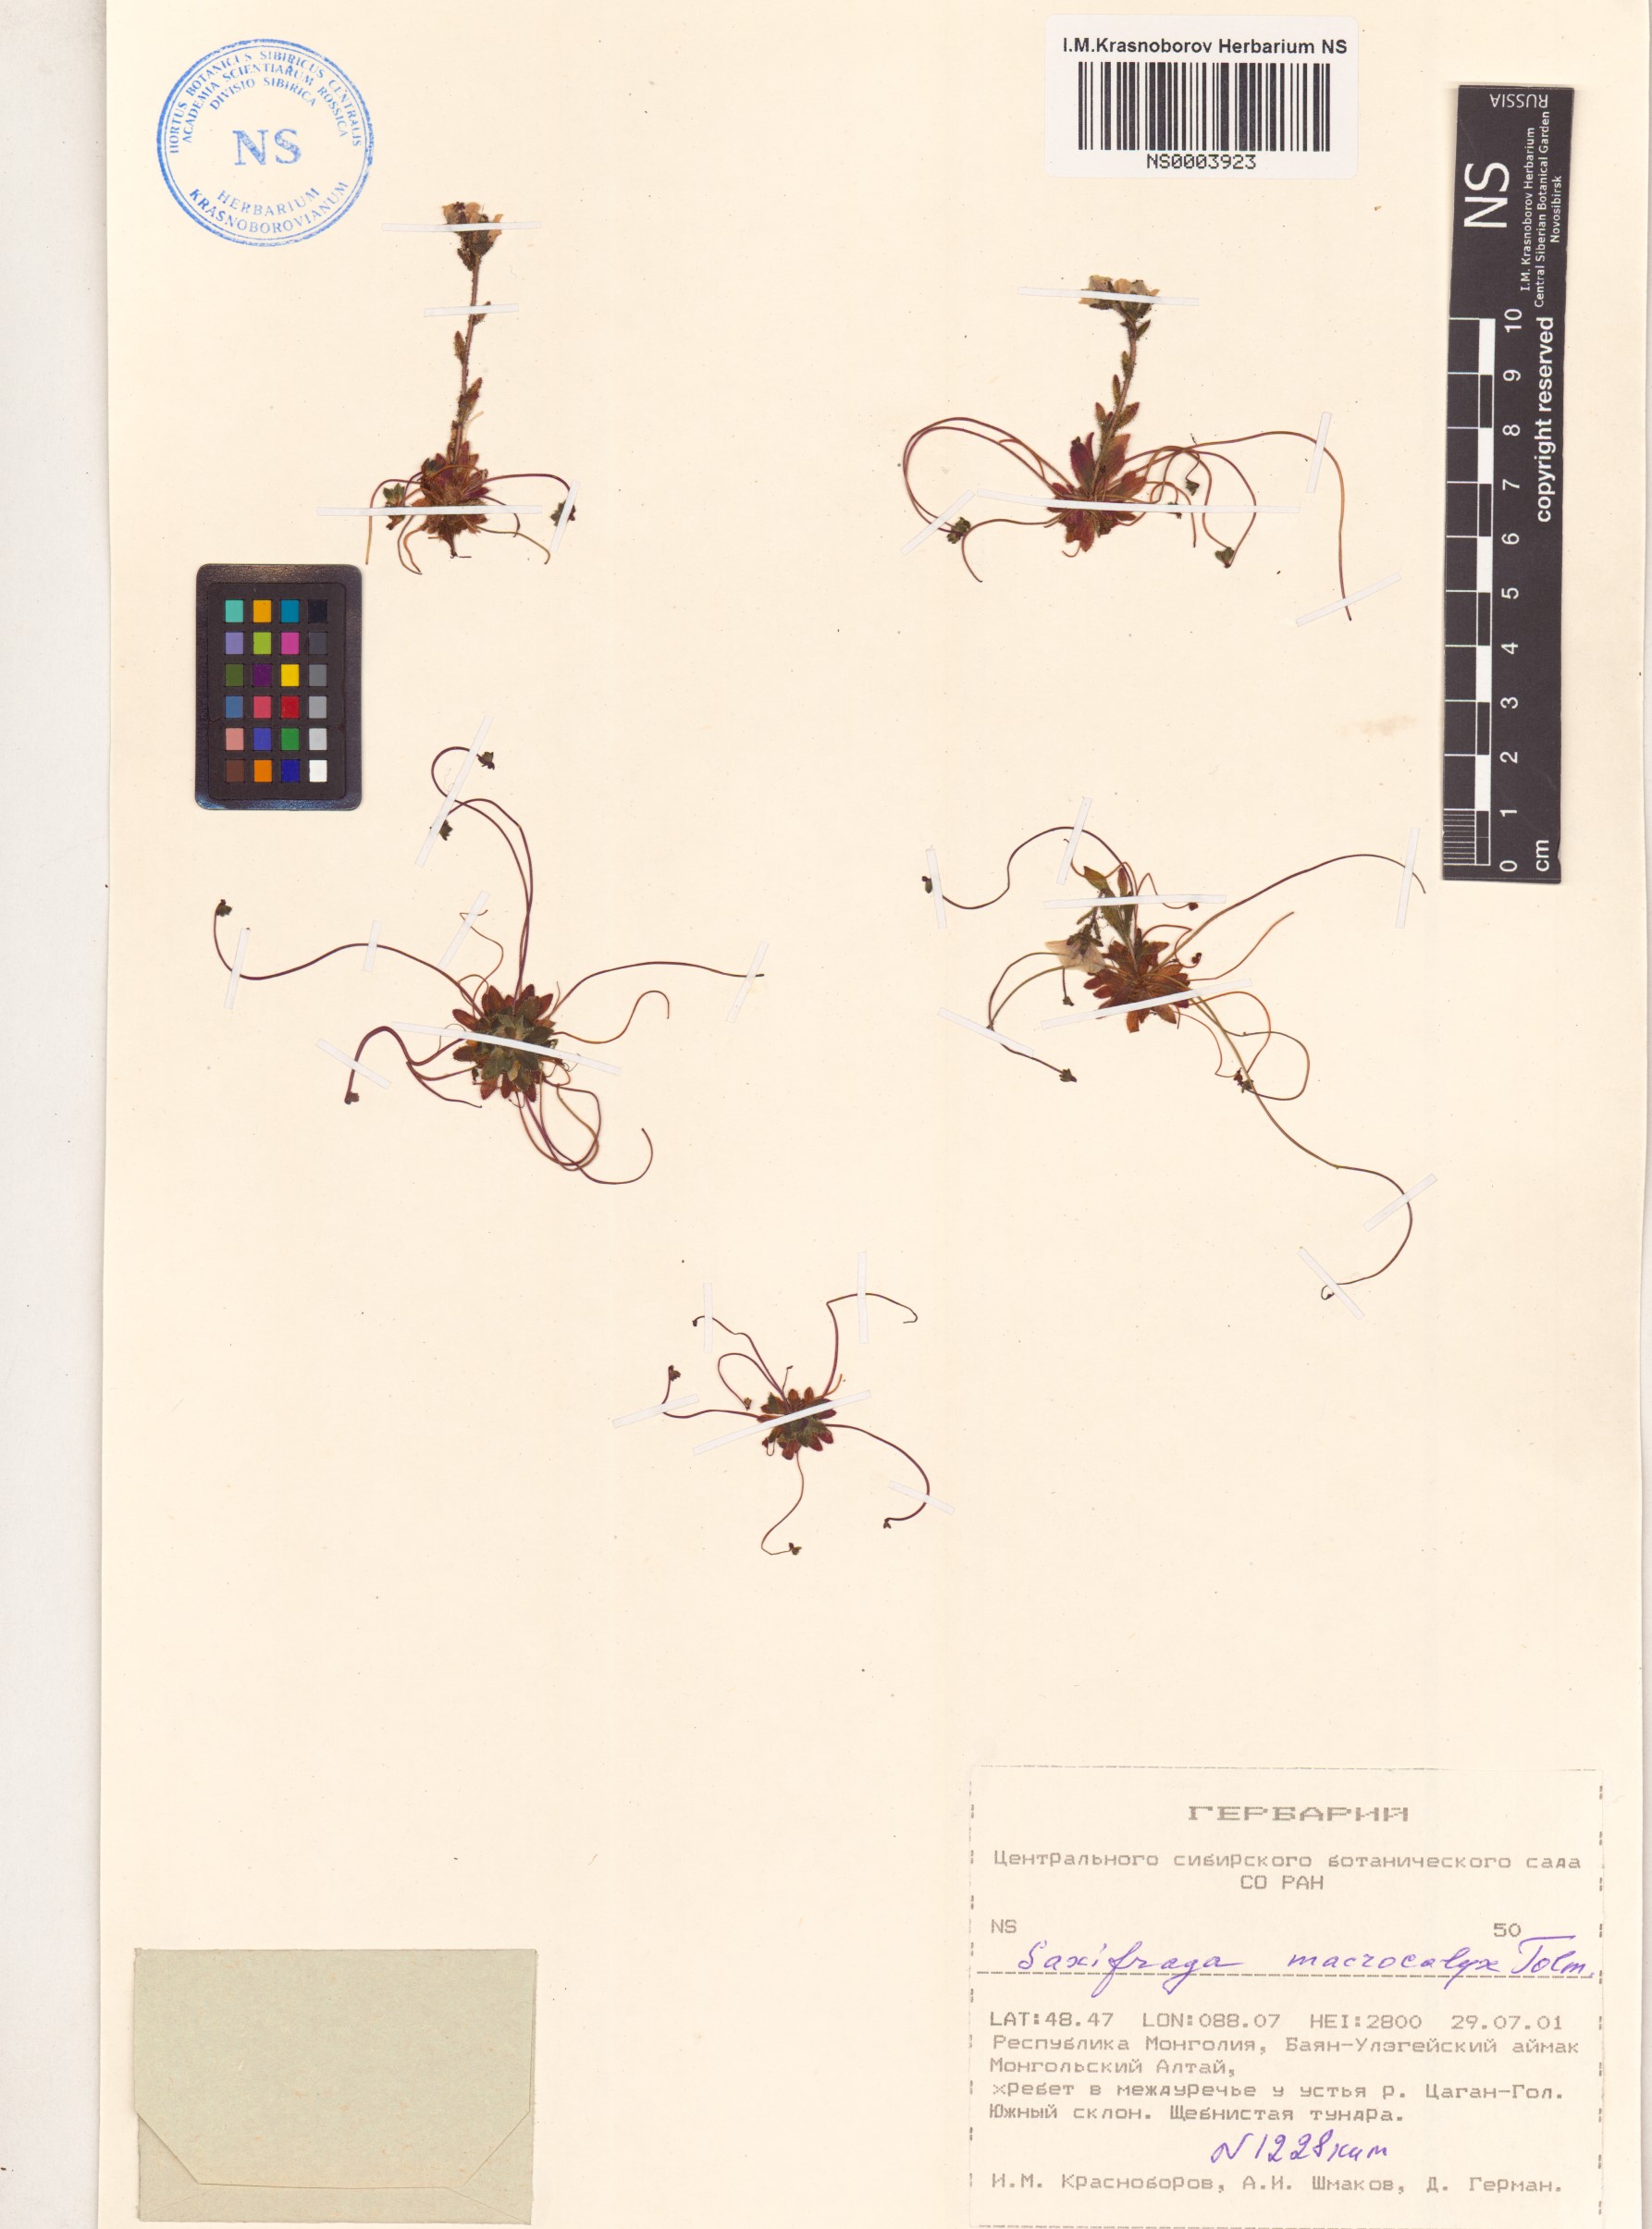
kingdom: Plantae
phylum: Tracheophyta
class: Magnoliopsida
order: Saxifragales
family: Saxifragaceae
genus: Saxifraga
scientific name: Saxifraga flagellaris
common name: Spider saxifrage
